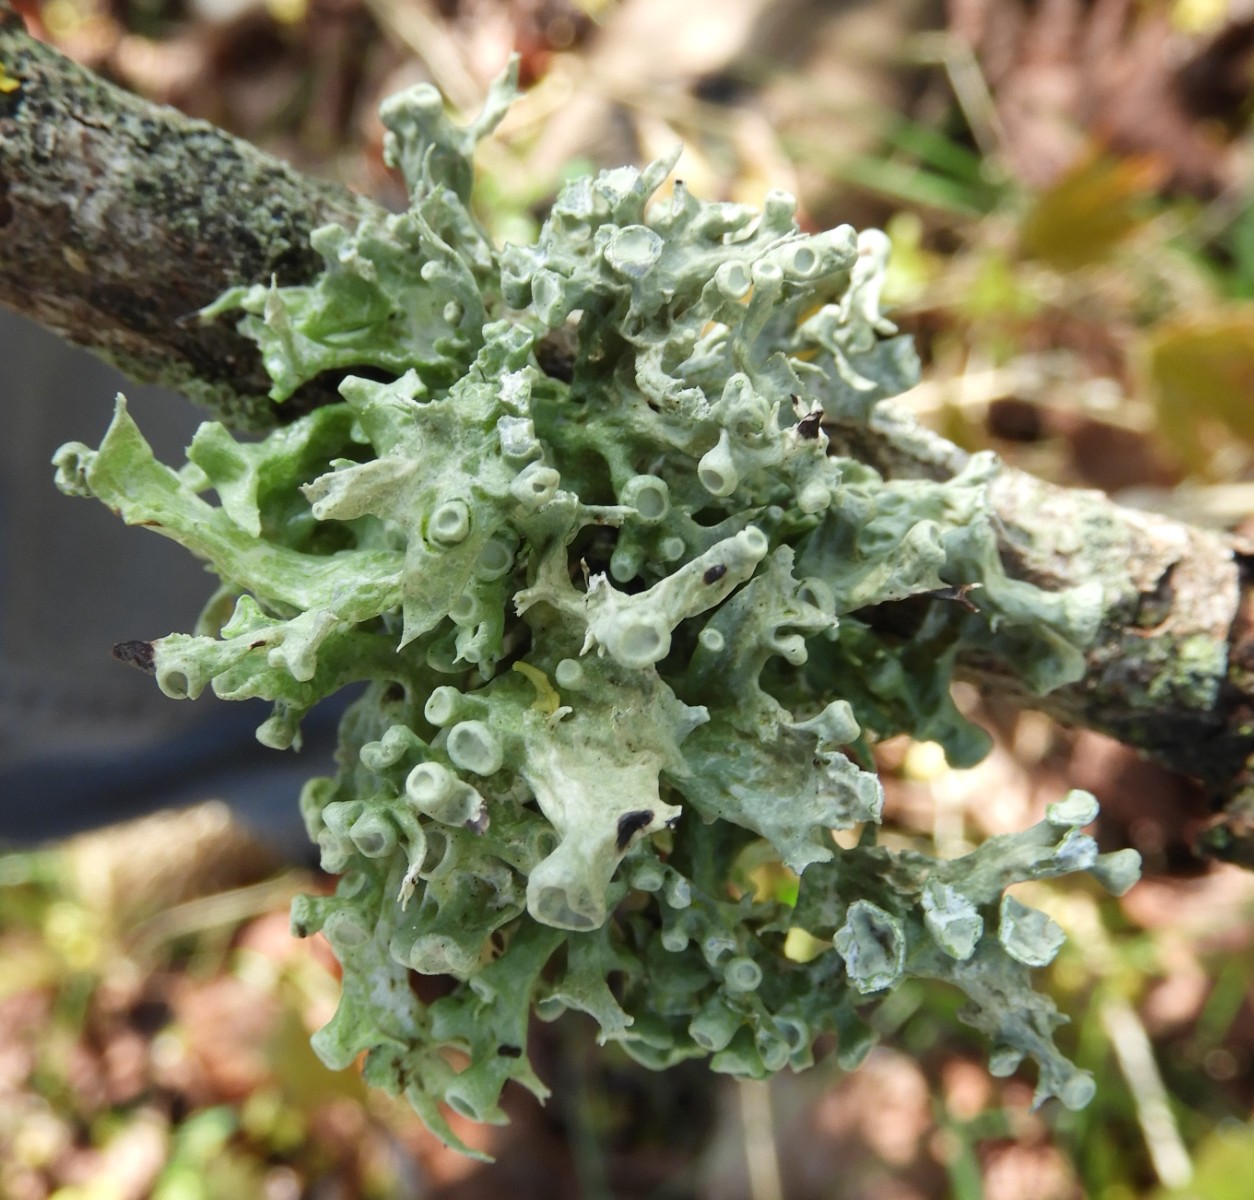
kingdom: Fungi
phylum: Ascomycota
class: Lecanoromycetes
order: Lecanorales
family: Ramalinaceae
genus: Ramalina
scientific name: Ramalina fastigiata
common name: tue-grenlav
